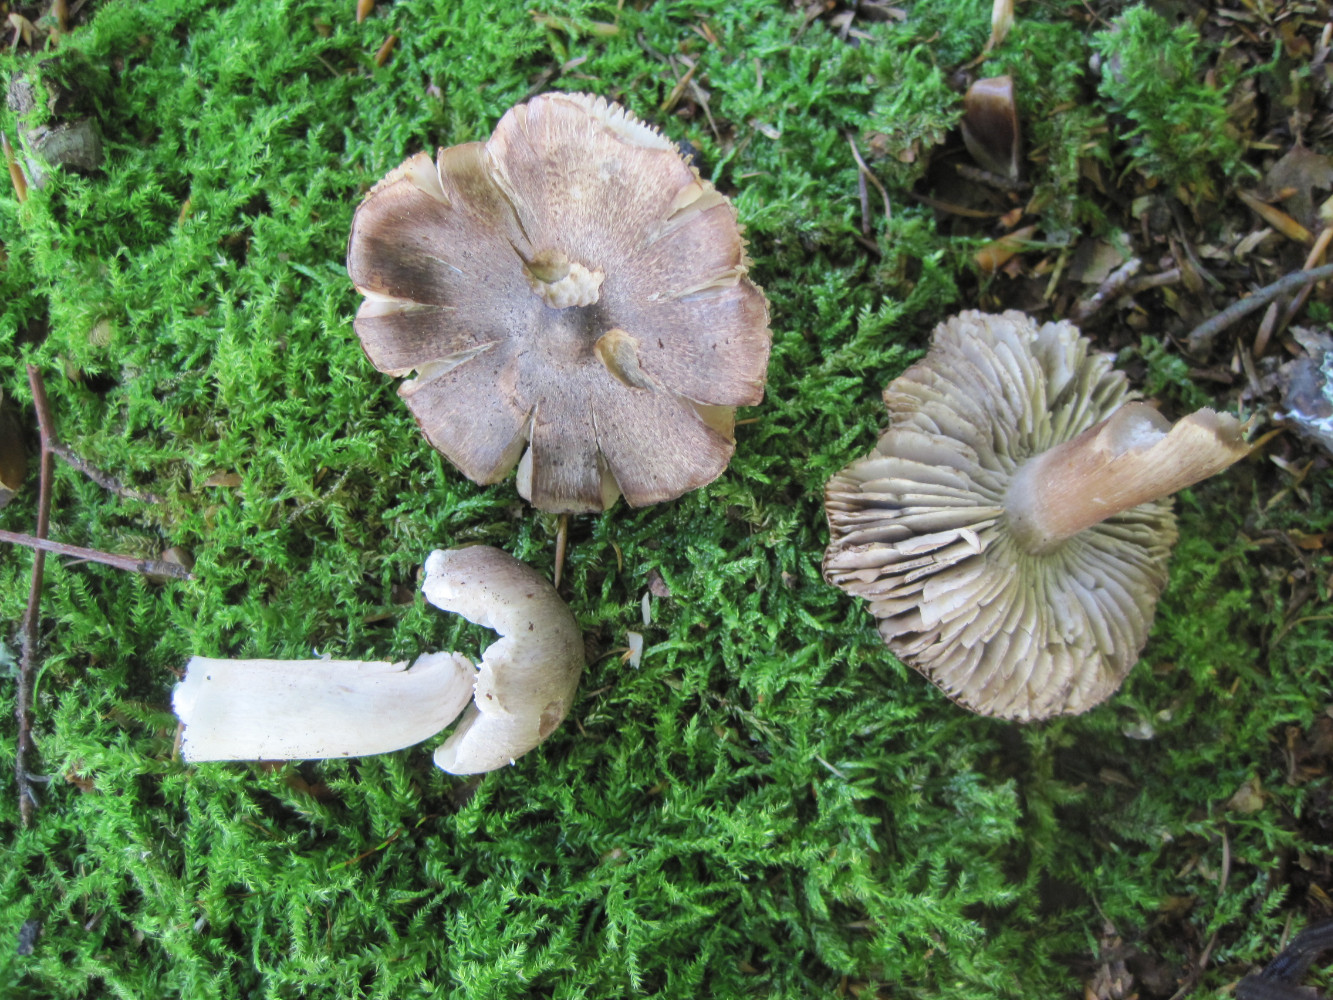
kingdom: Fungi
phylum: Basidiomycota
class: Agaricomycetes
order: Agaricales
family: Tricholomataceae
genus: Tricholoma
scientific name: Tricholoma sciodes
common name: stribet ridderhat
